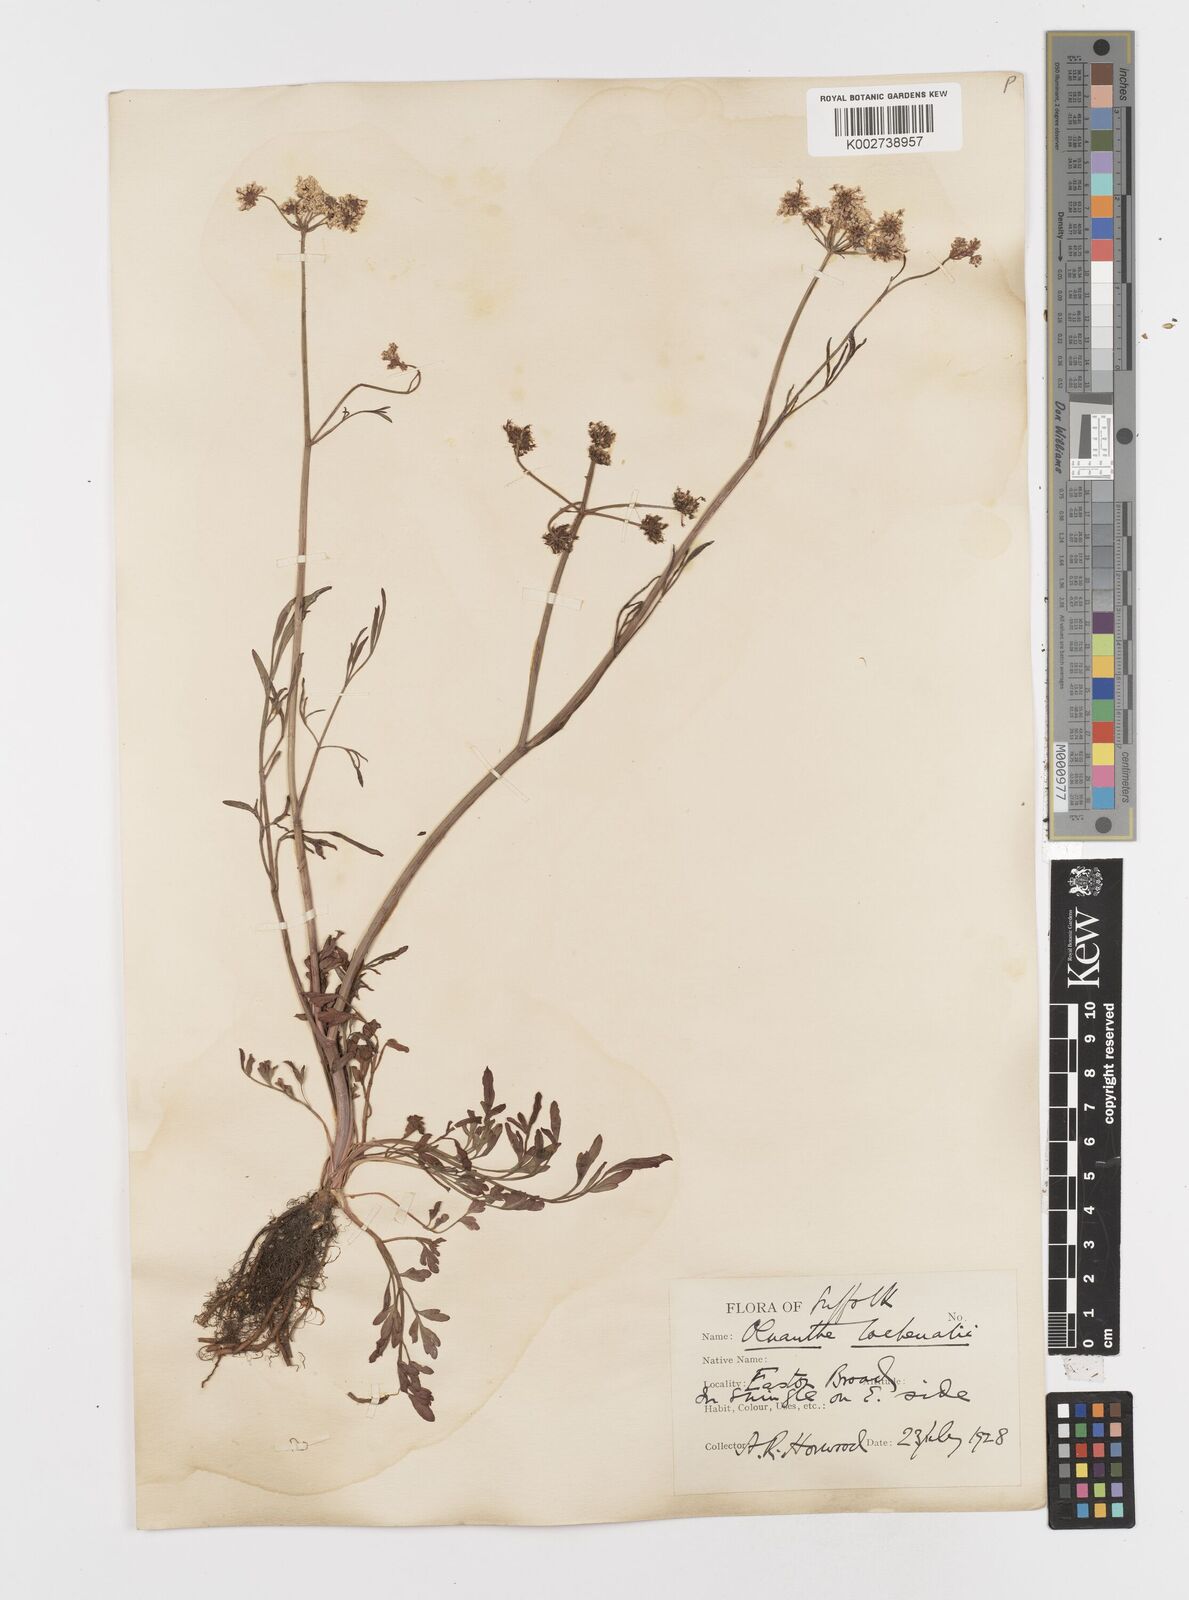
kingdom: Plantae
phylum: Tracheophyta
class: Magnoliopsida
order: Apiales
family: Apiaceae
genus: Oenanthe
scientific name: Oenanthe lachenalii
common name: Parsley water-dropwort
